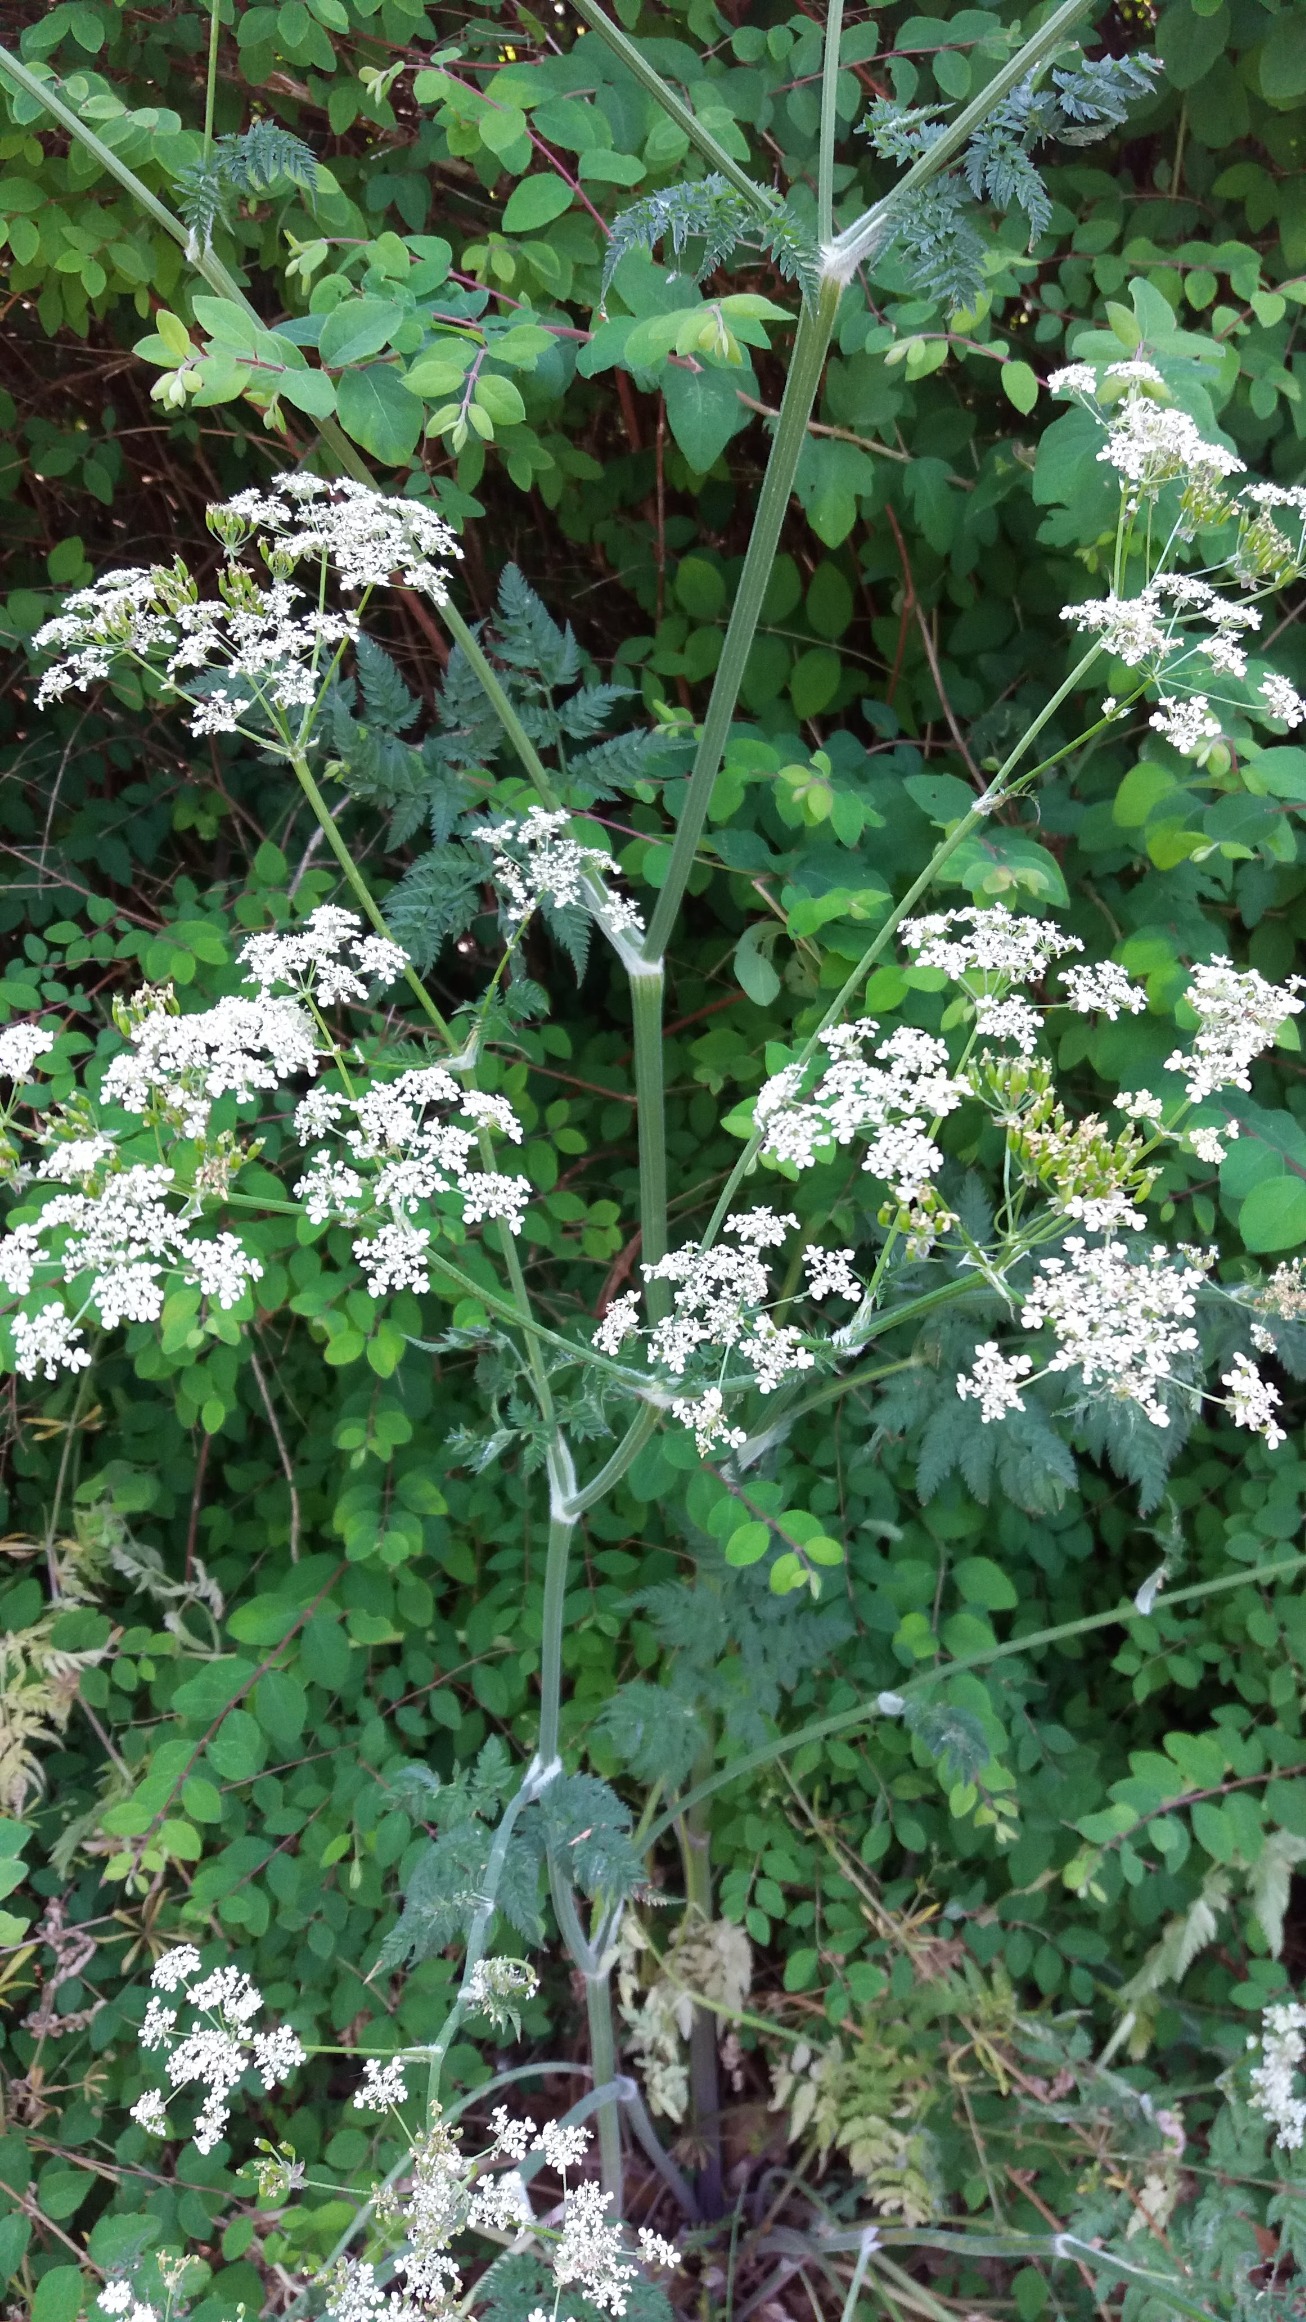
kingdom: Plantae
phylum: Tracheophyta
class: Magnoliopsida
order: Apiales
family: Apiaceae
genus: Anthriscus
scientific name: Anthriscus sylvestris
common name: Vild kørvel
